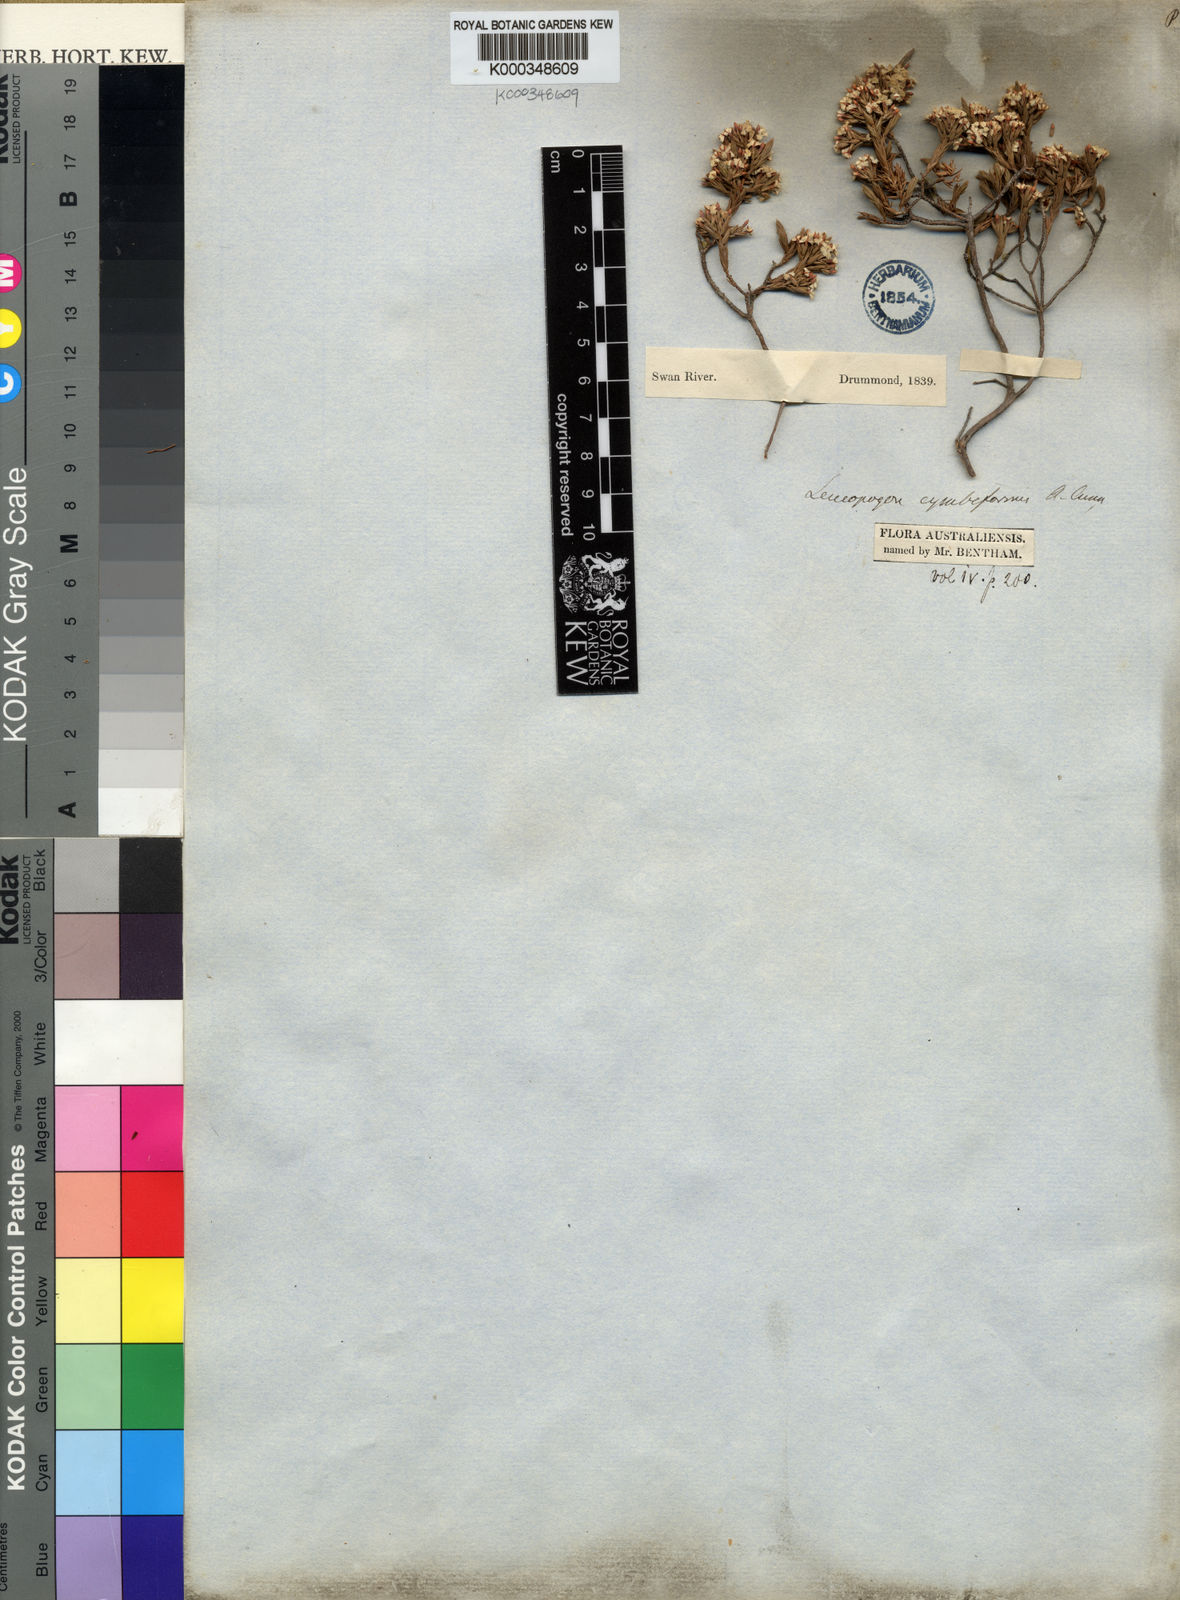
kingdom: Plantae
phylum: Tracheophyta
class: Magnoliopsida
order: Ericales
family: Ericaceae
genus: Styphelia
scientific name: Styphelia cymbiformis
